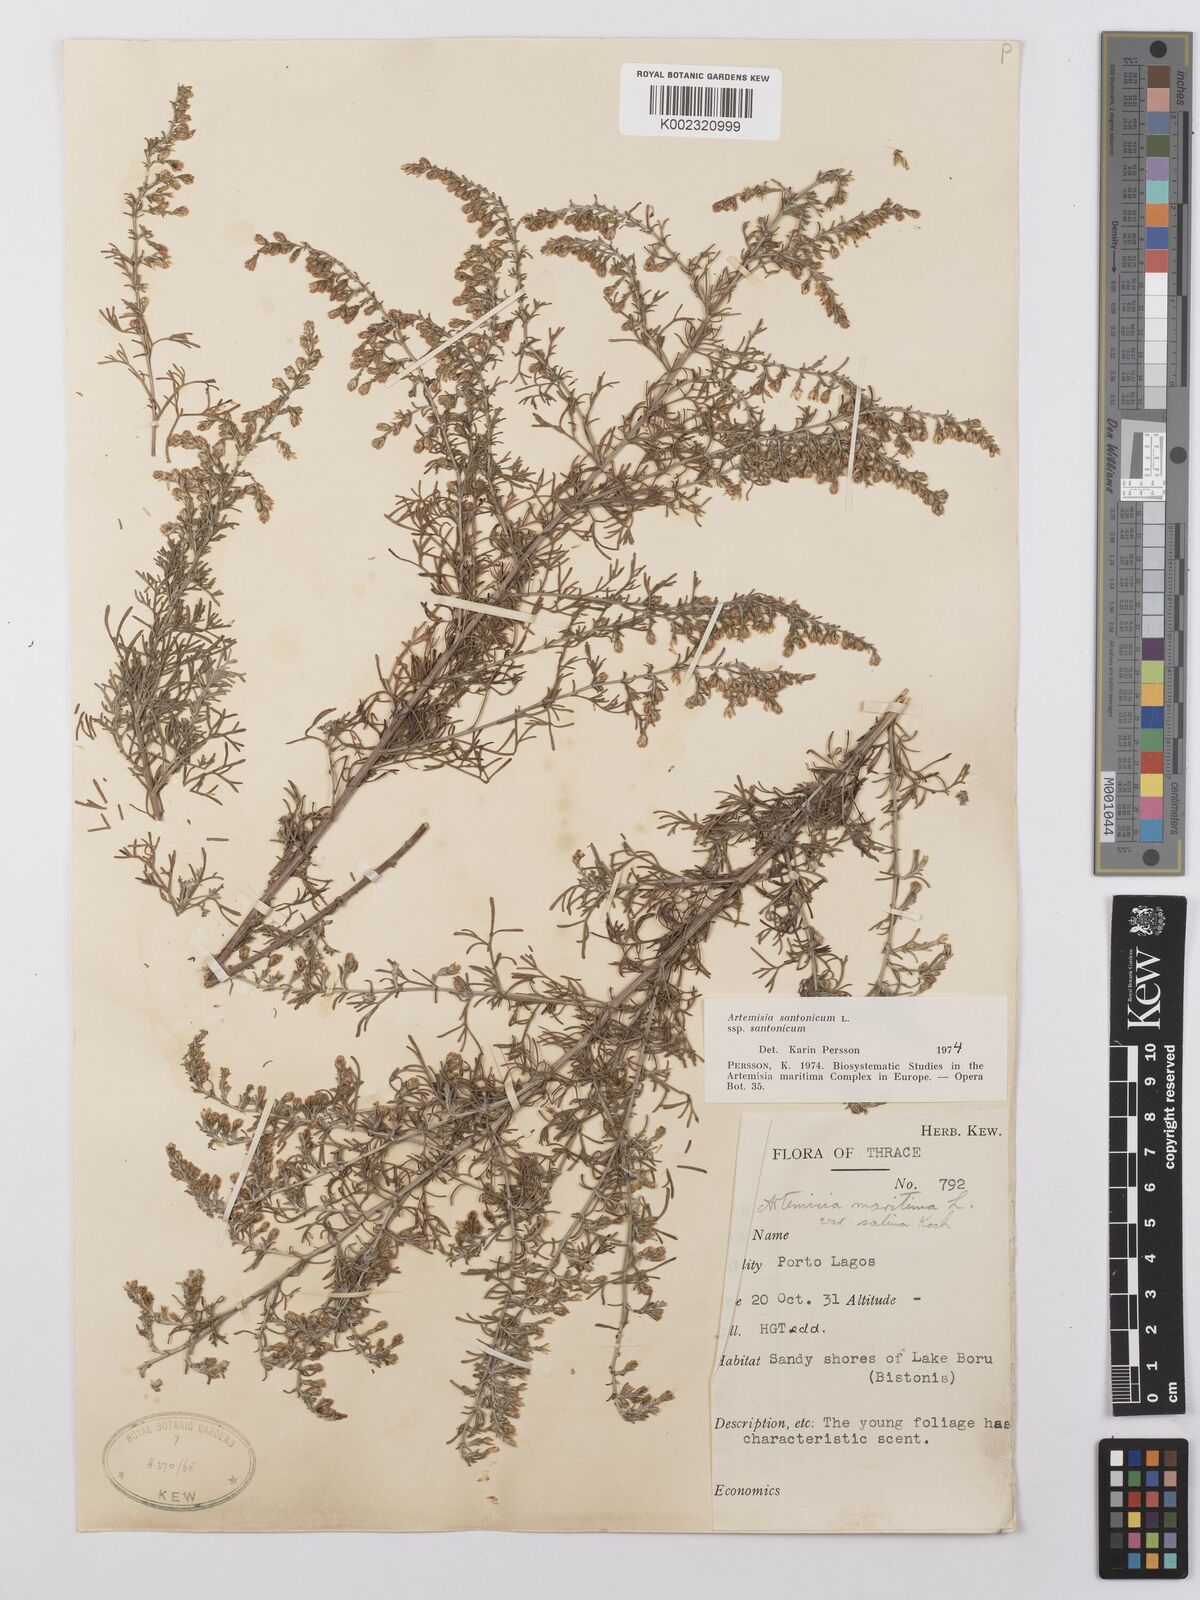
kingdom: Plantae
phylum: Tracheophyta
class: Magnoliopsida
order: Asterales
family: Asteraceae
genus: Artemisia
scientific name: Artemisia santonicum
